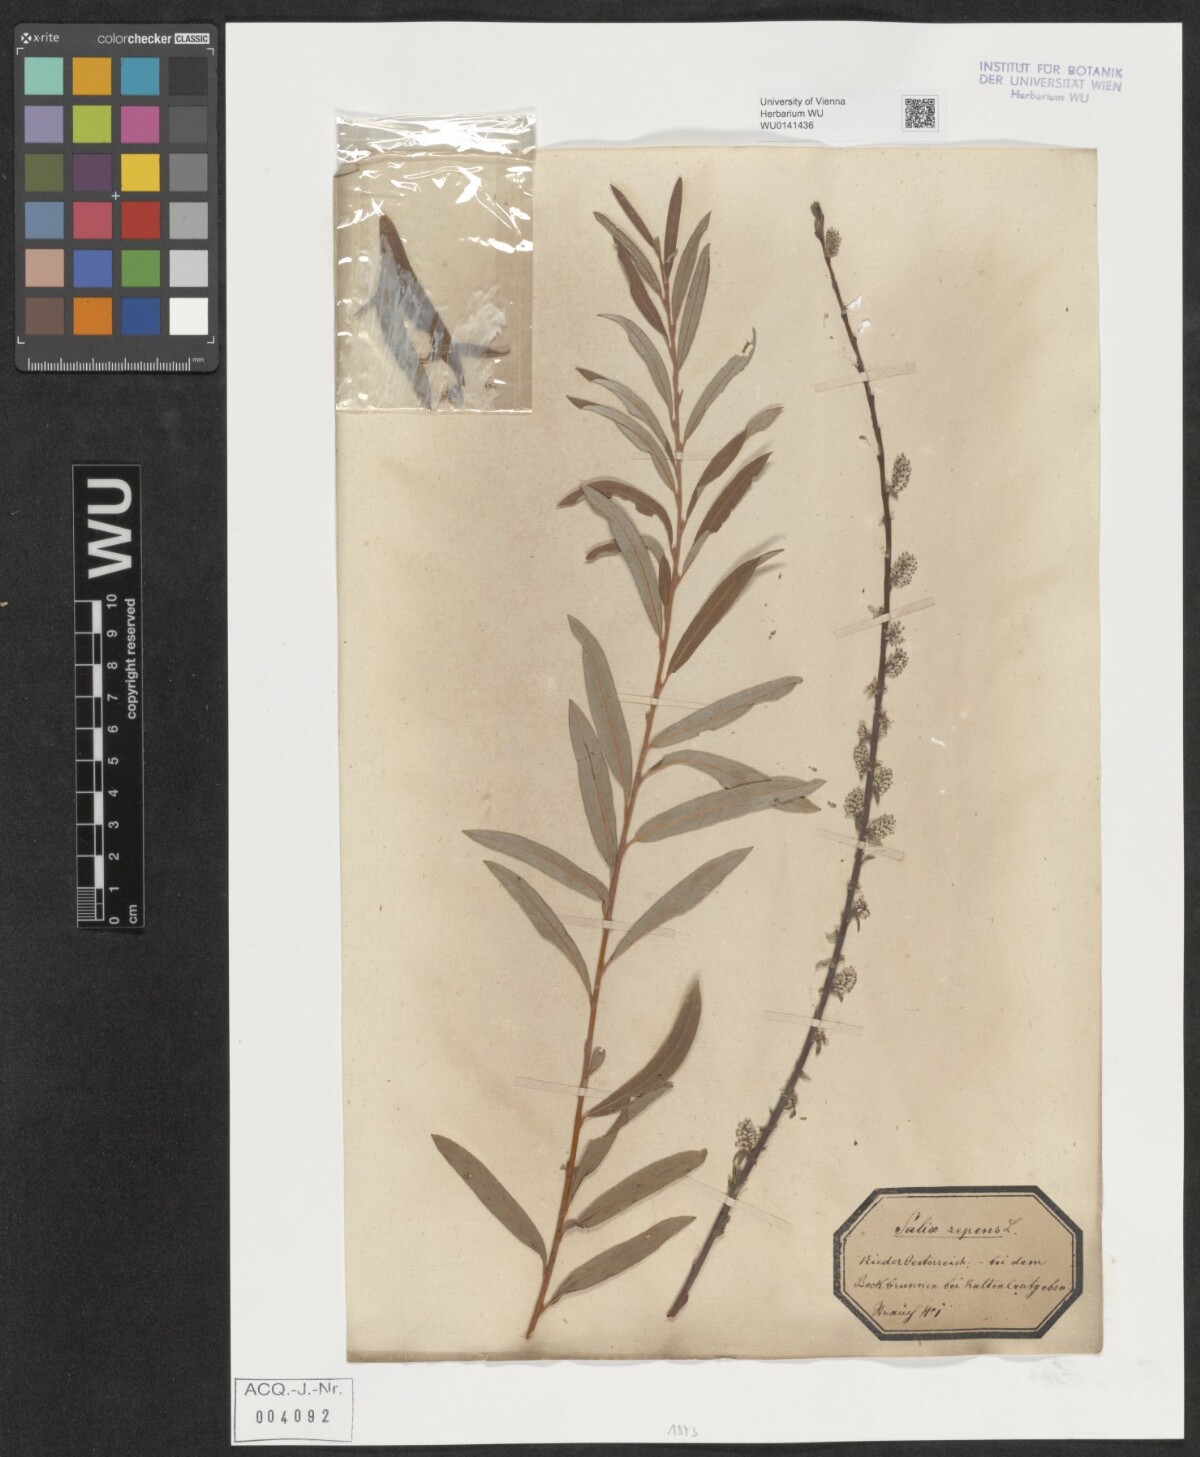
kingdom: Plantae
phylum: Tracheophyta
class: Magnoliopsida
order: Malpighiales
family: Salicaceae
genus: Salix
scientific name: Salix repens
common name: Creeping willow
